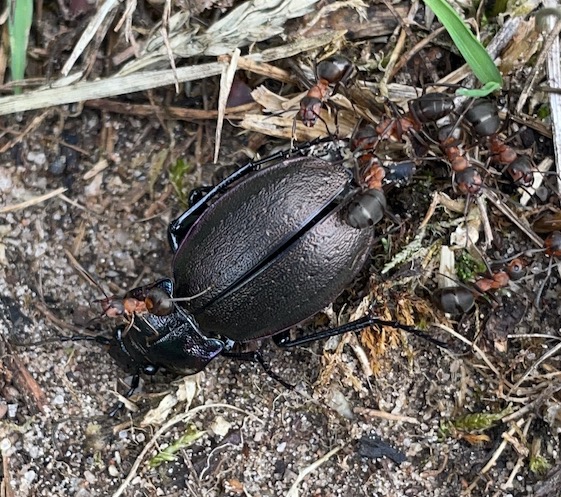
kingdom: Animalia
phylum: Arthropoda
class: Insecta
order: Coleoptera
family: Carabidae
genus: Carabus
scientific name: Carabus nemoralis
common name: Kratløber
